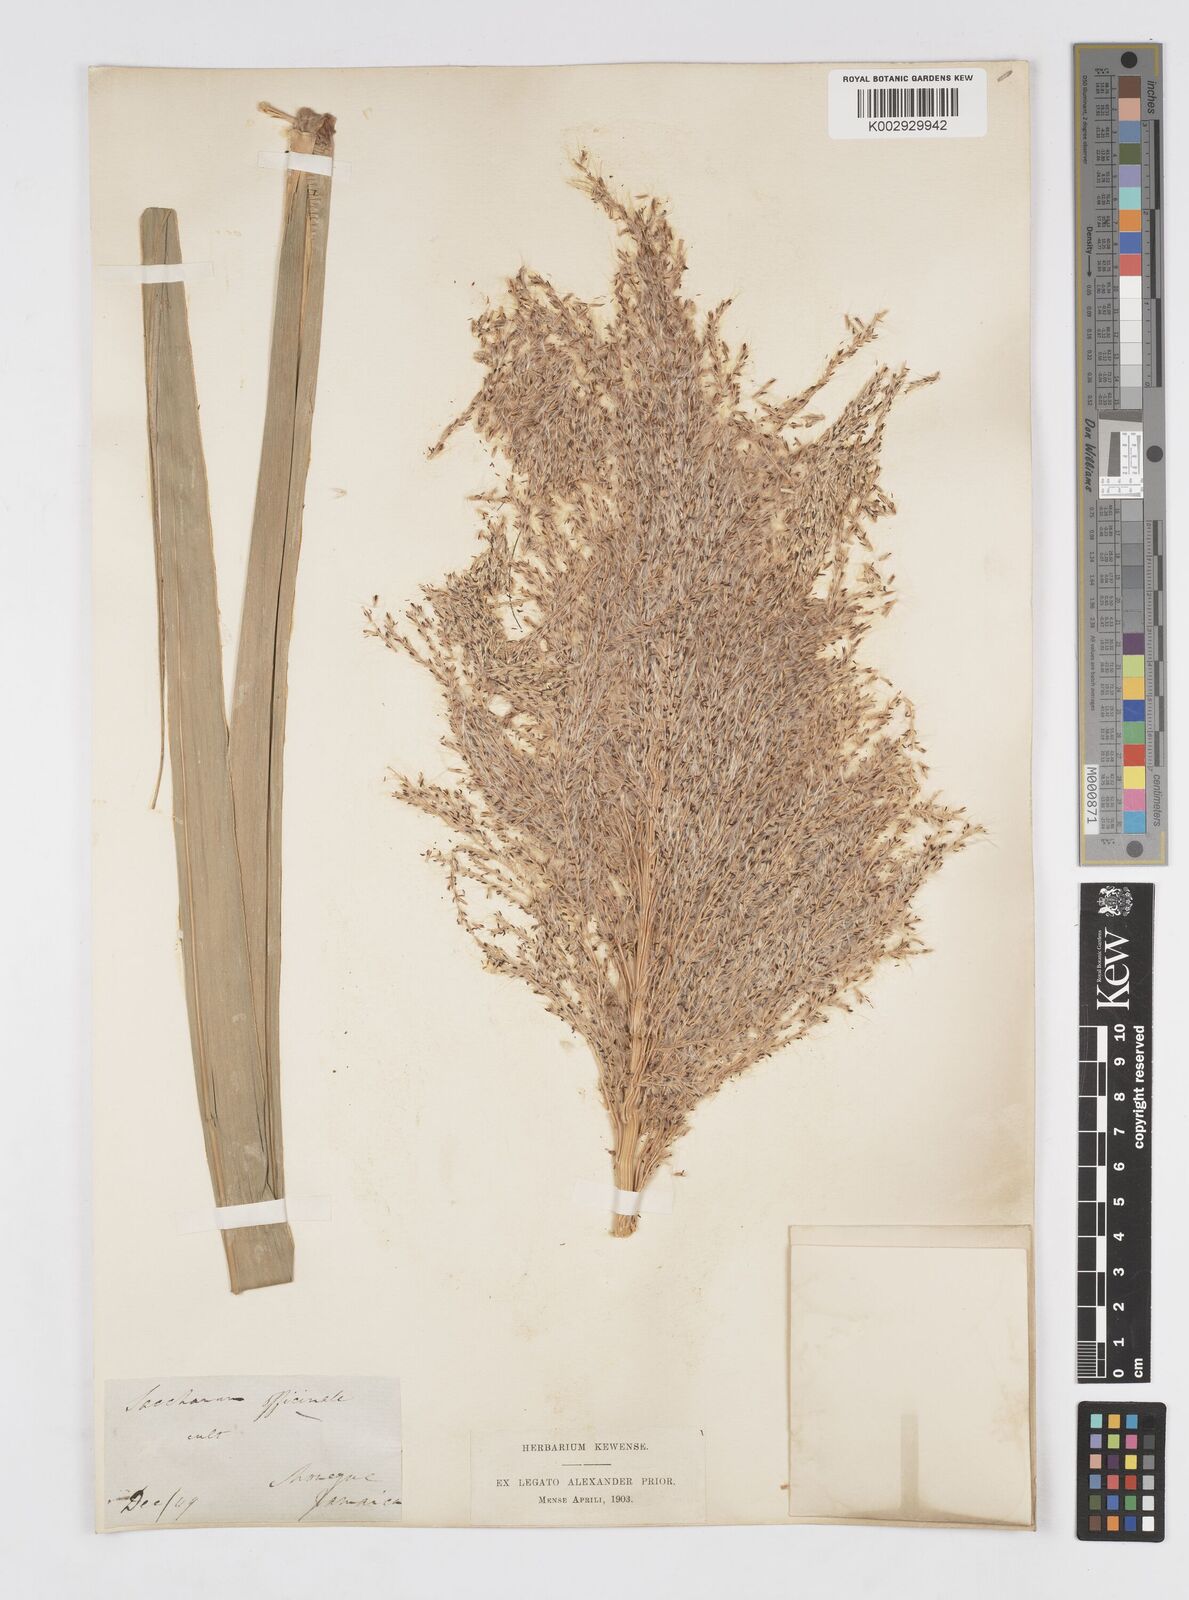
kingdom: Plantae
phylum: Tracheophyta
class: Liliopsida
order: Poales
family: Poaceae
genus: Saccharum
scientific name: Saccharum officinarum
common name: Sugarcane
